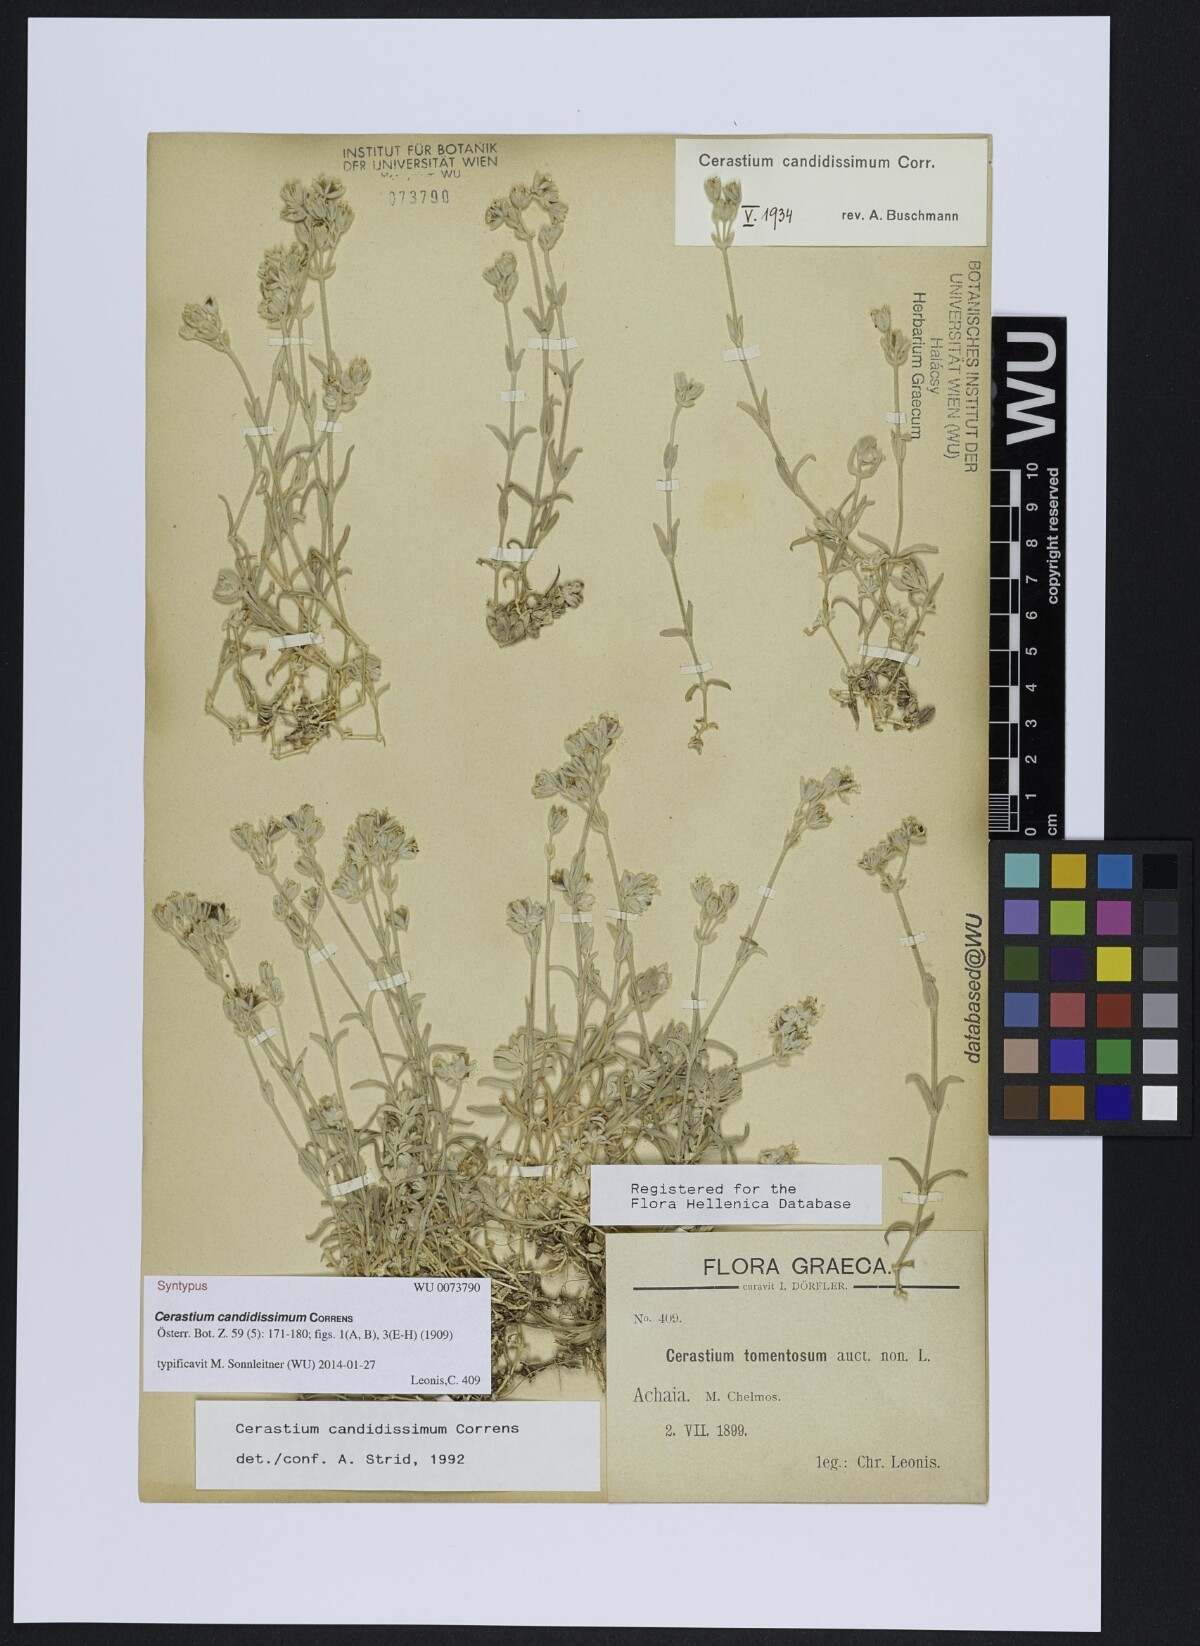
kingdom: Plantae
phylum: Tracheophyta
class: Magnoliopsida
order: Caryophyllales
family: Caryophyllaceae
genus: Cerastium
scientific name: Cerastium candidissimum
